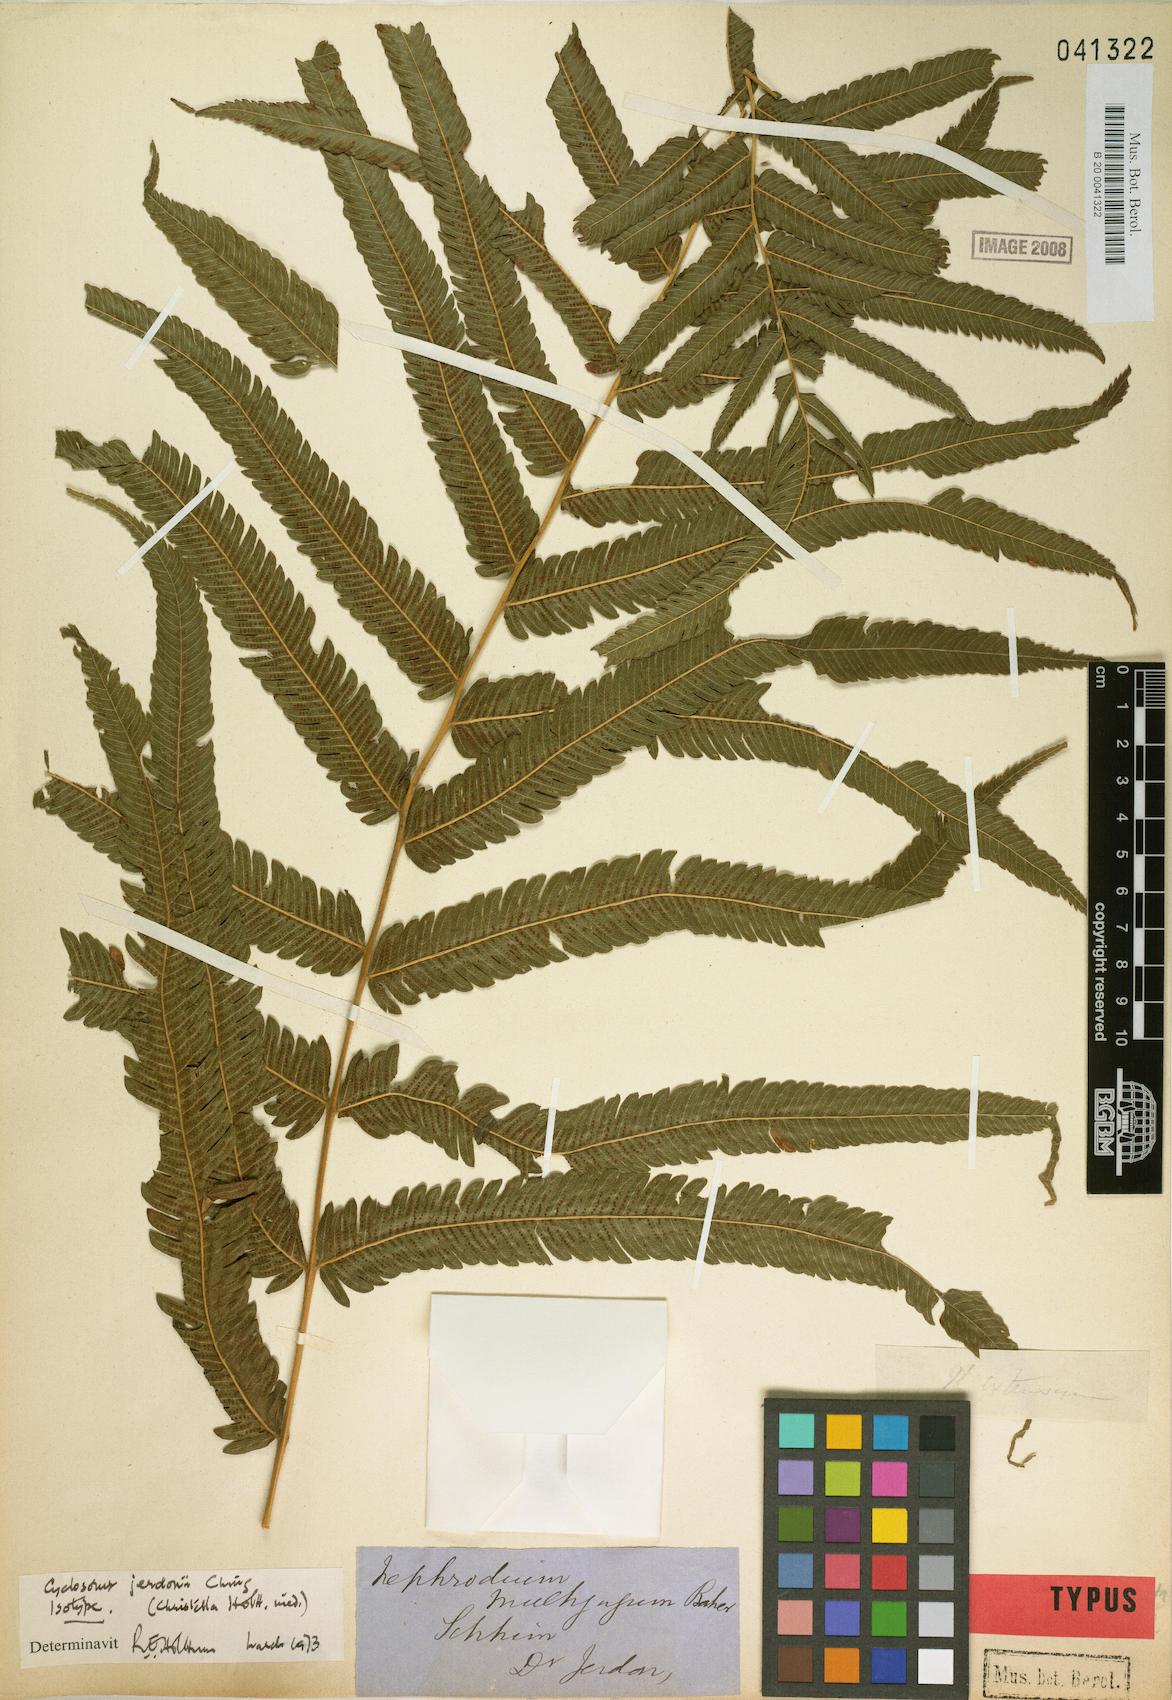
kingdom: Plantae
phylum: Tracheophyta
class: Polypodiopsida
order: Polypodiales
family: Thelypteridaceae
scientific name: Thelypteridaceae
